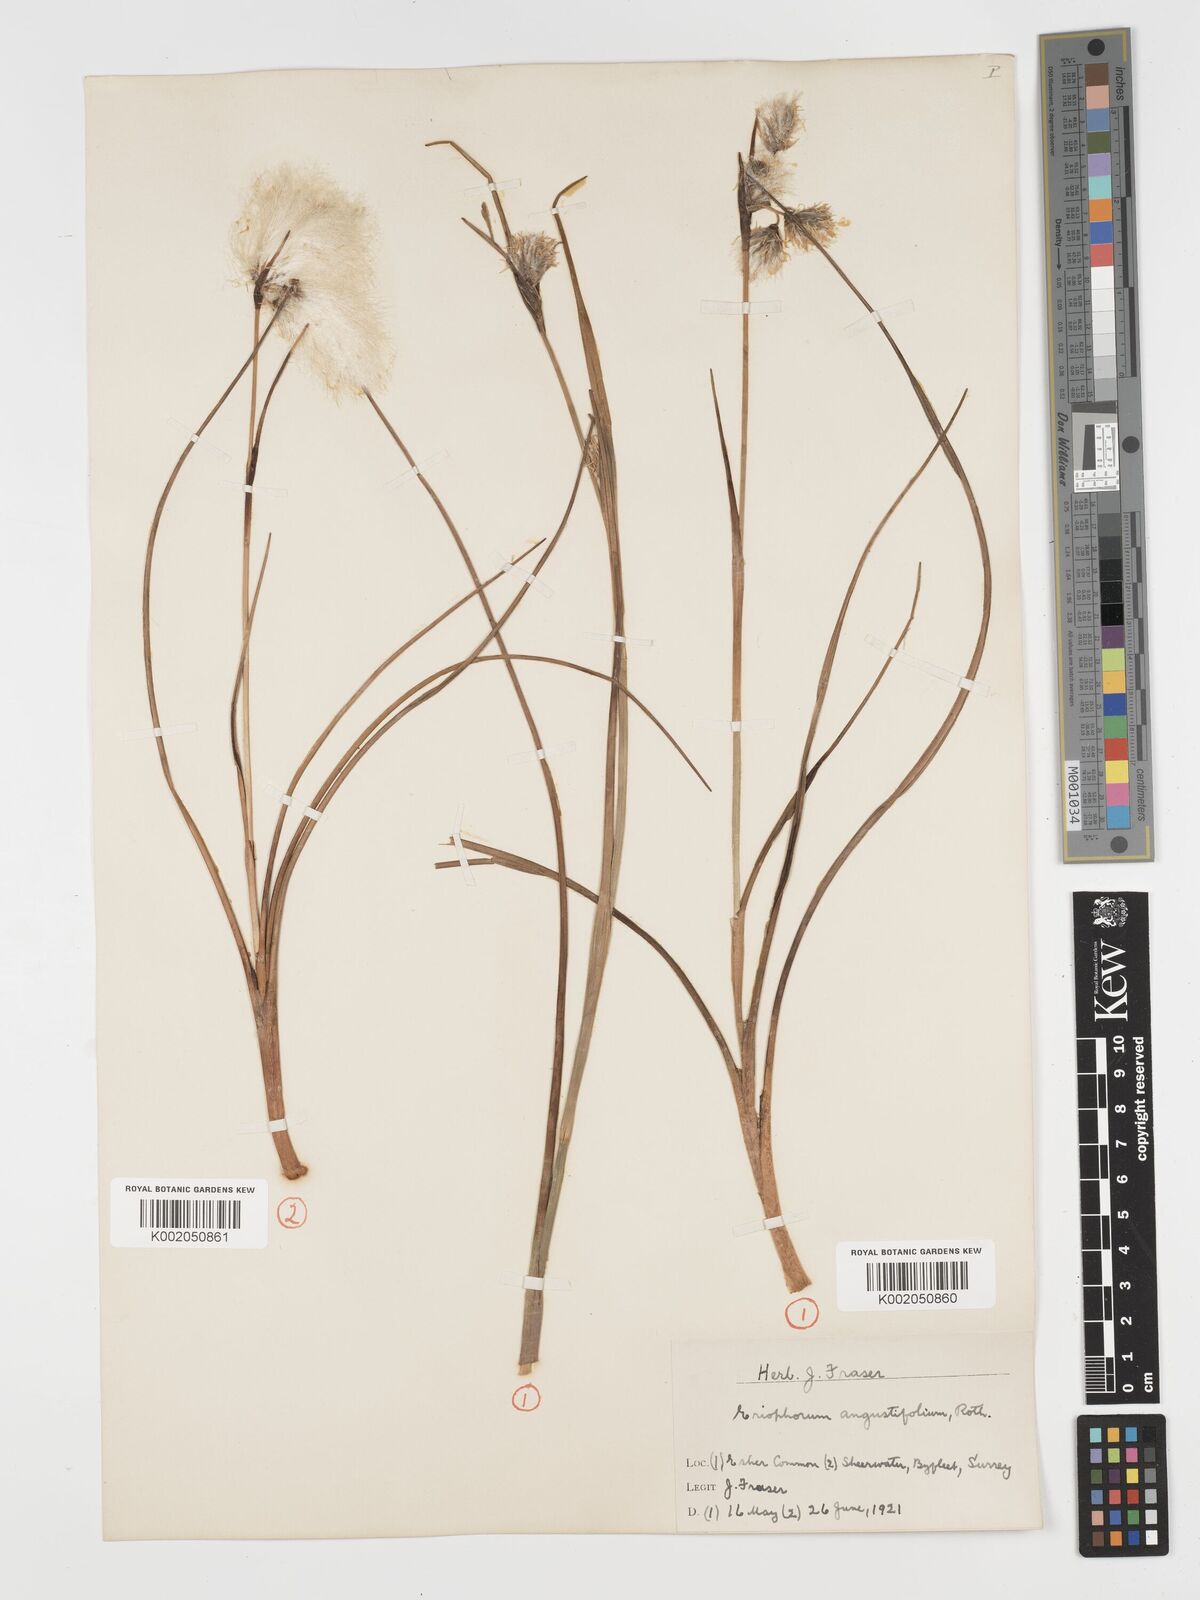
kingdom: Plantae
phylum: Tracheophyta
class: Liliopsida
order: Poales
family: Cyperaceae
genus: Eriophorum
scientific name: Eriophorum angustifolium
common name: Common cottongrass
